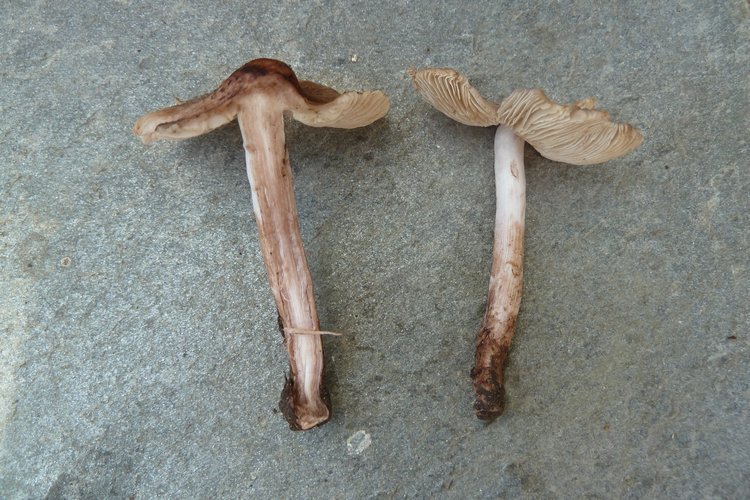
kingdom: Fungi
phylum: Basidiomycota
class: Agaricomycetes
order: Agaricales
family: Inocybaceae
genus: Inosperma
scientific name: Inosperma adaequatum
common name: vinrød trævlhat
